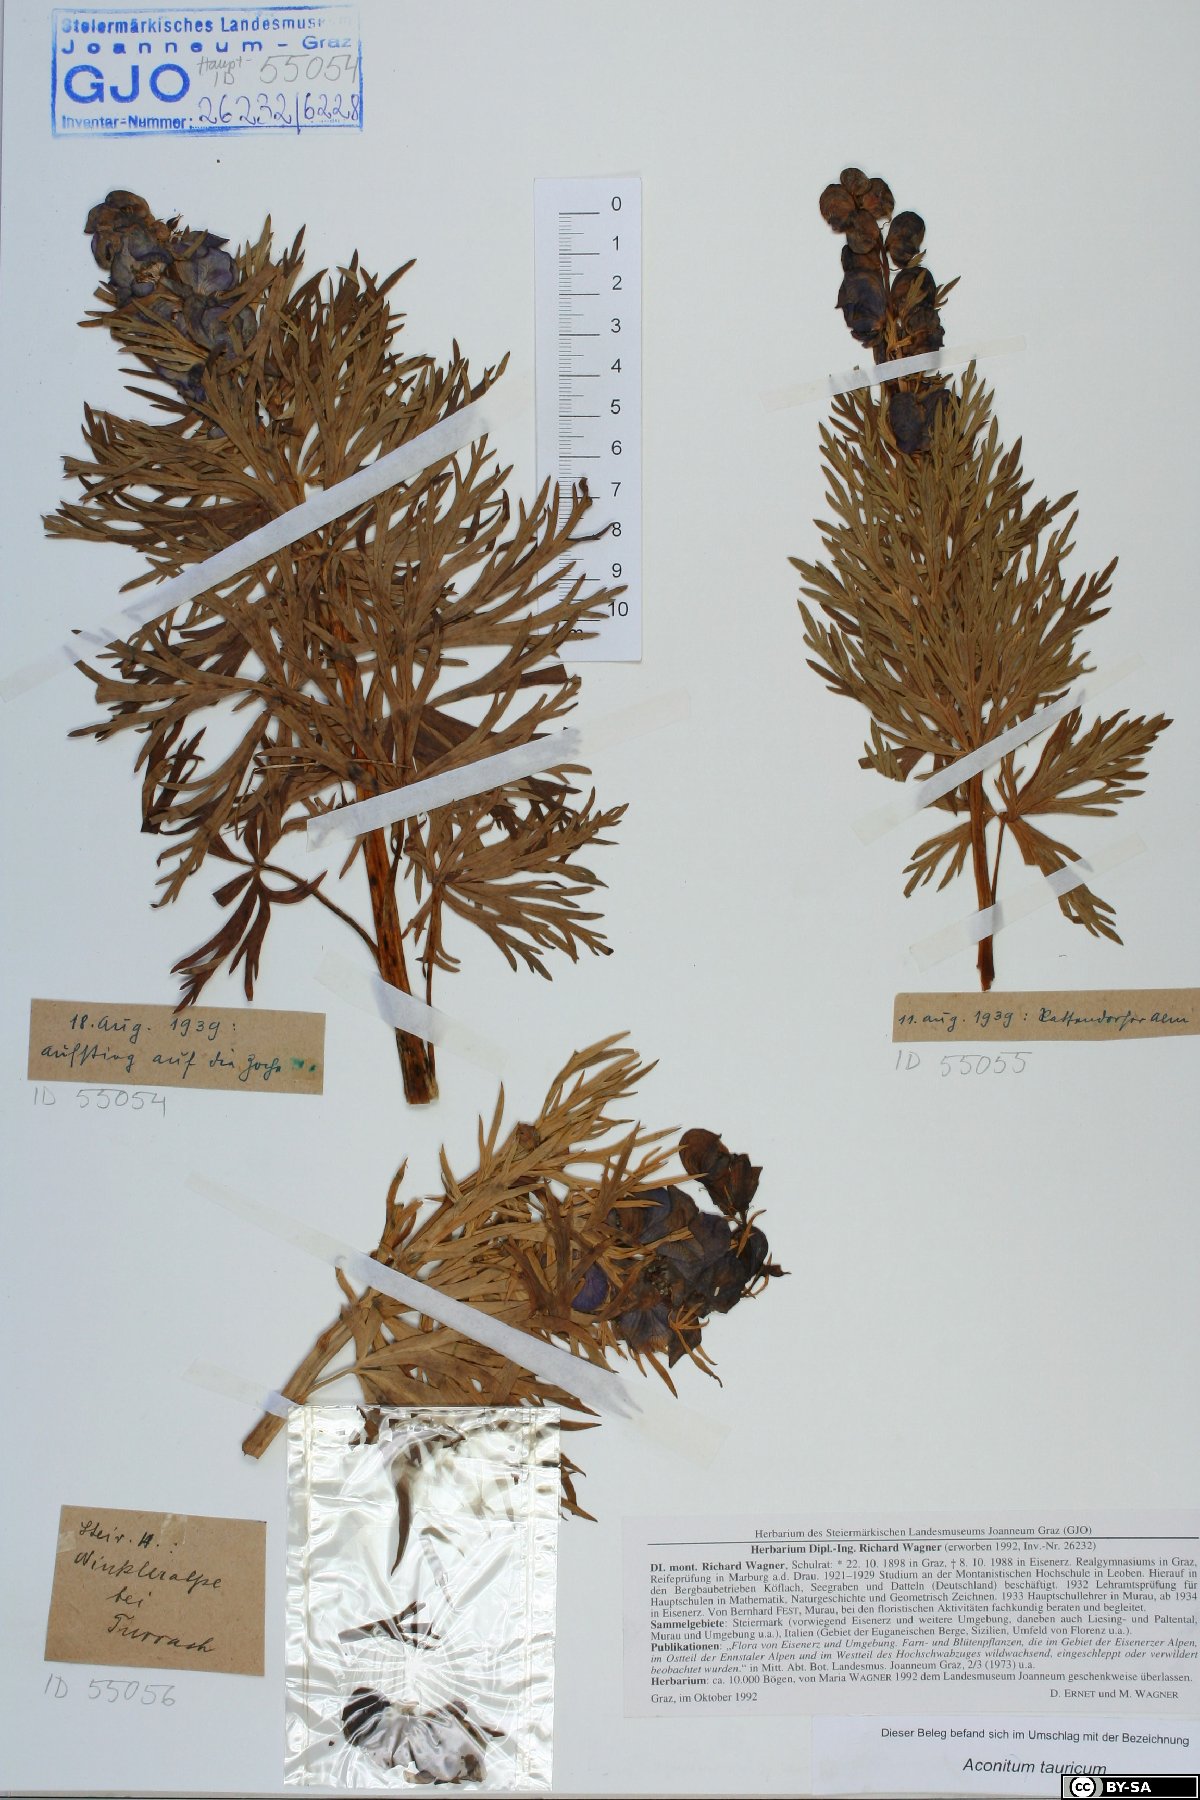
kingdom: Plantae
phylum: Tracheophyta
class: Magnoliopsida
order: Ranunculales
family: Ranunculaceae
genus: Aconitum
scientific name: Aconitum tauricum
